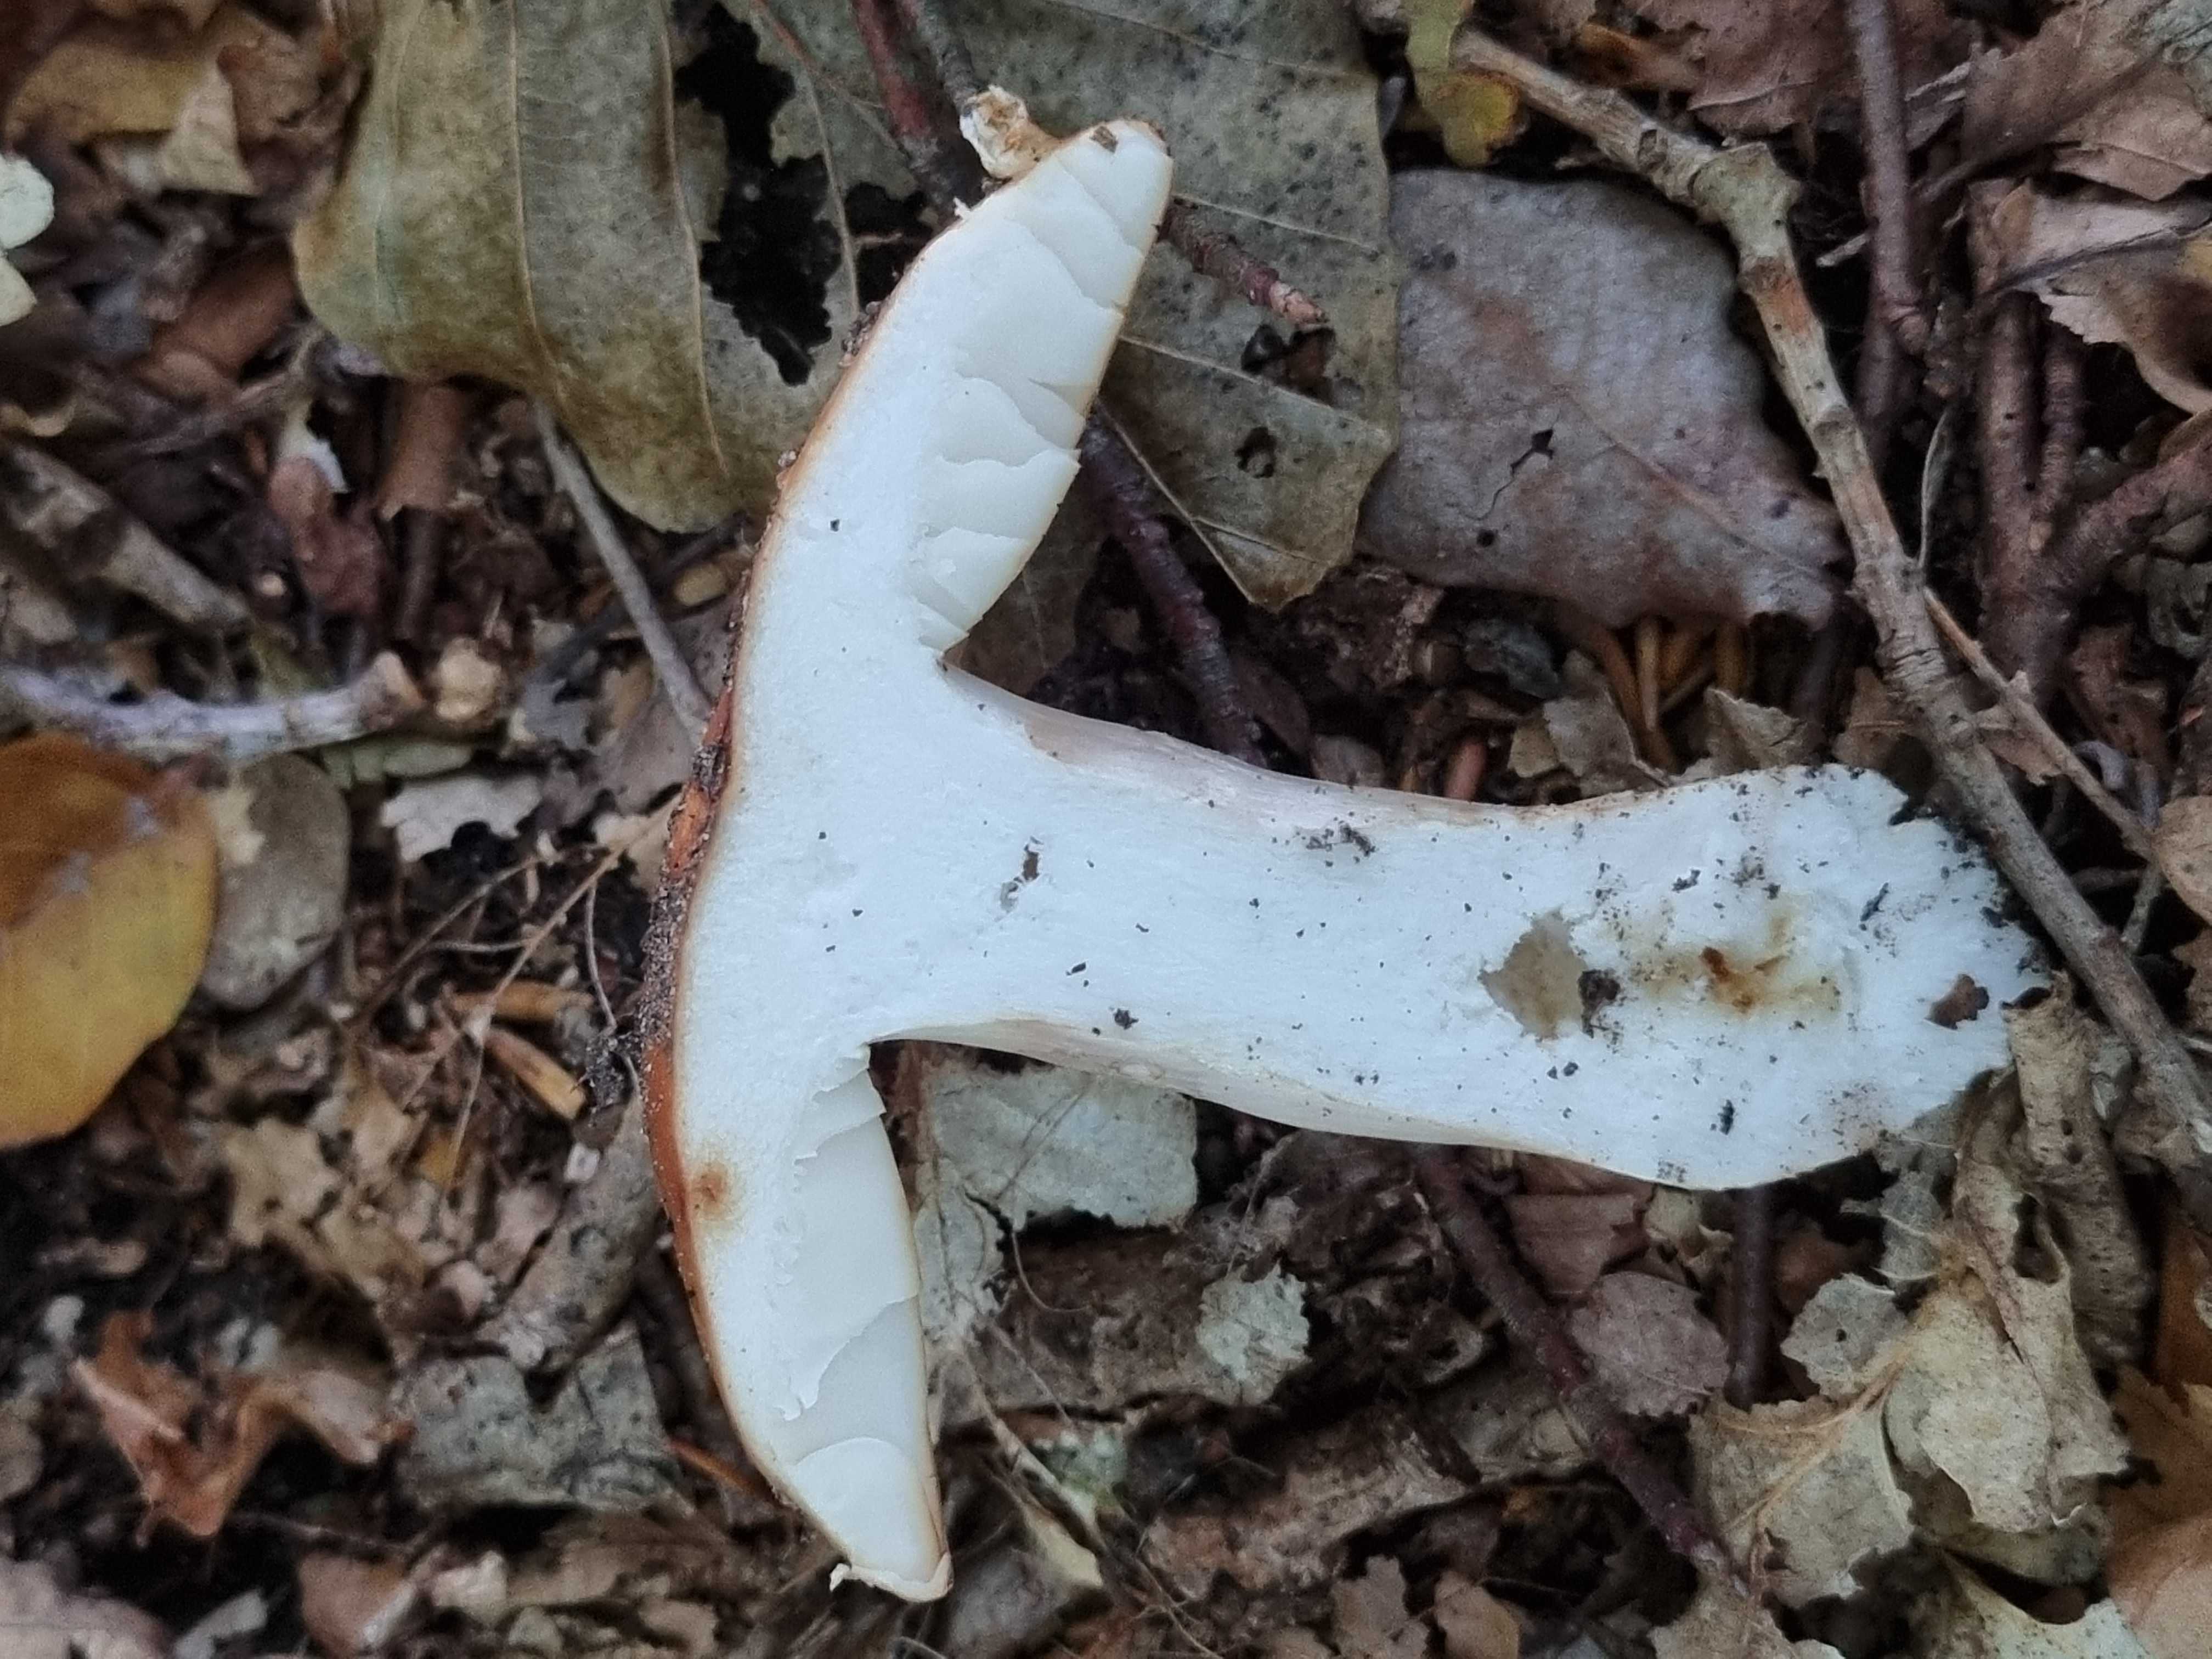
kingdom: Fungi
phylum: Basidiomycota
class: Agaricomycetes
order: Russulales
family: Russulaceae
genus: Russula
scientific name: Russula grata
